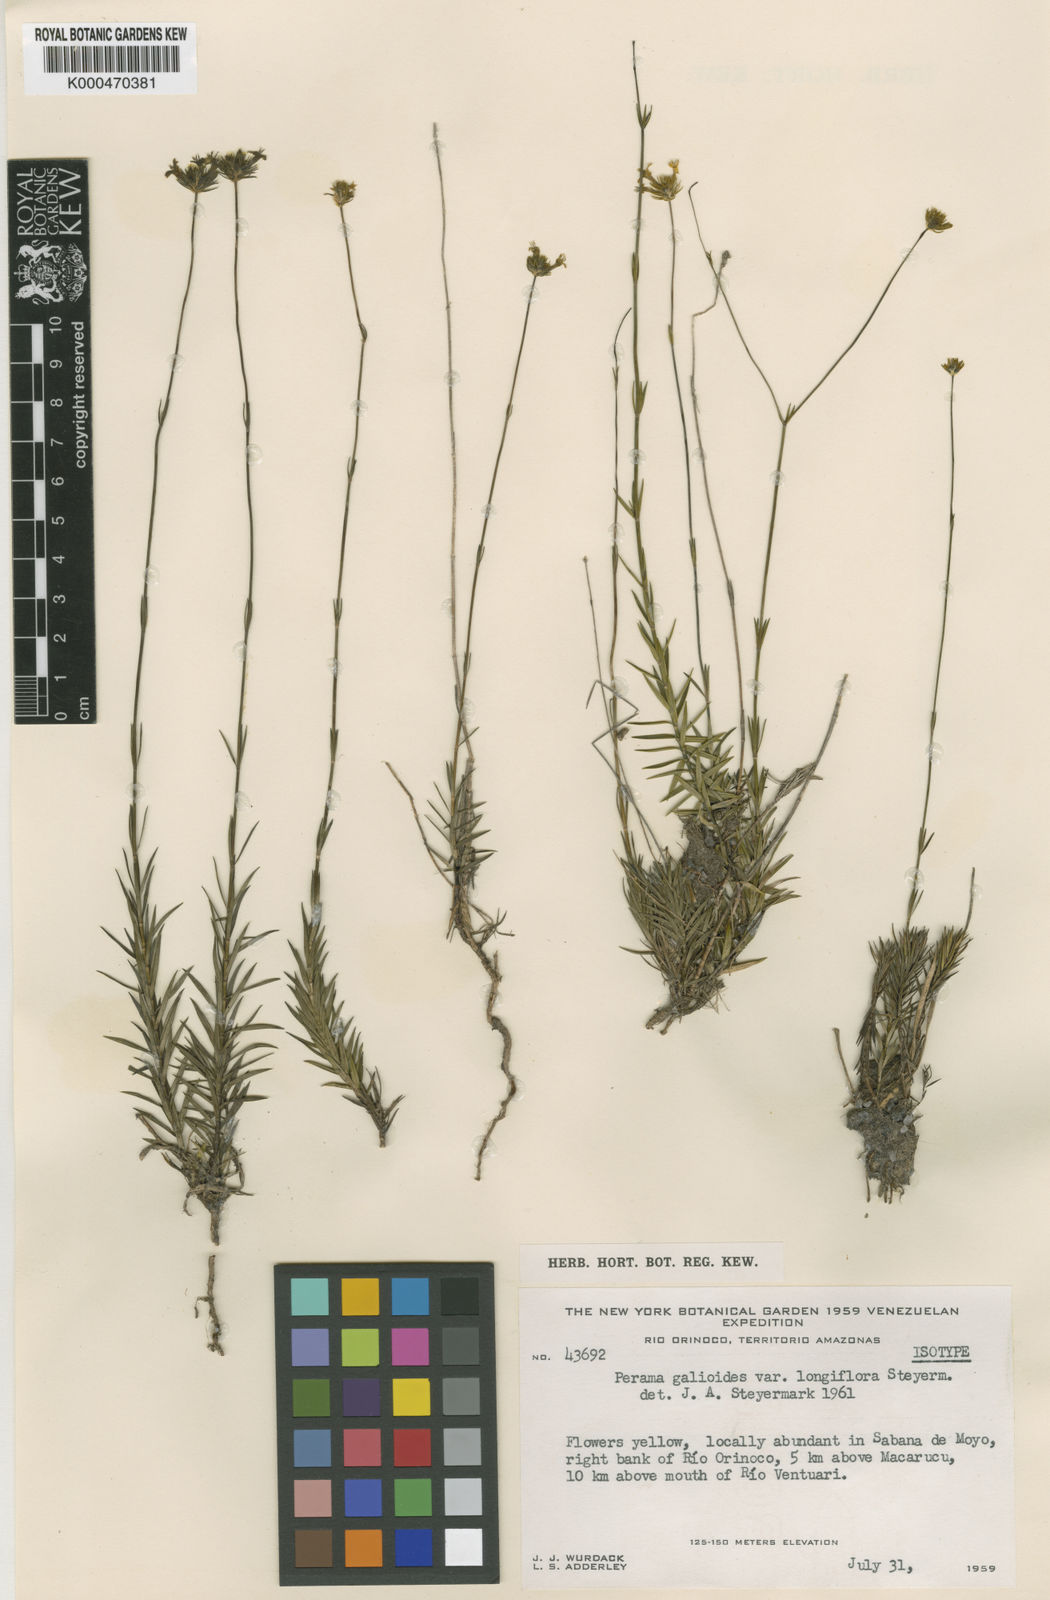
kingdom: Plantae
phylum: Tracheophyta
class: Magnoliopsida
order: Gentianales
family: Rubiaceae
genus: Perama
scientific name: Perama galioides
